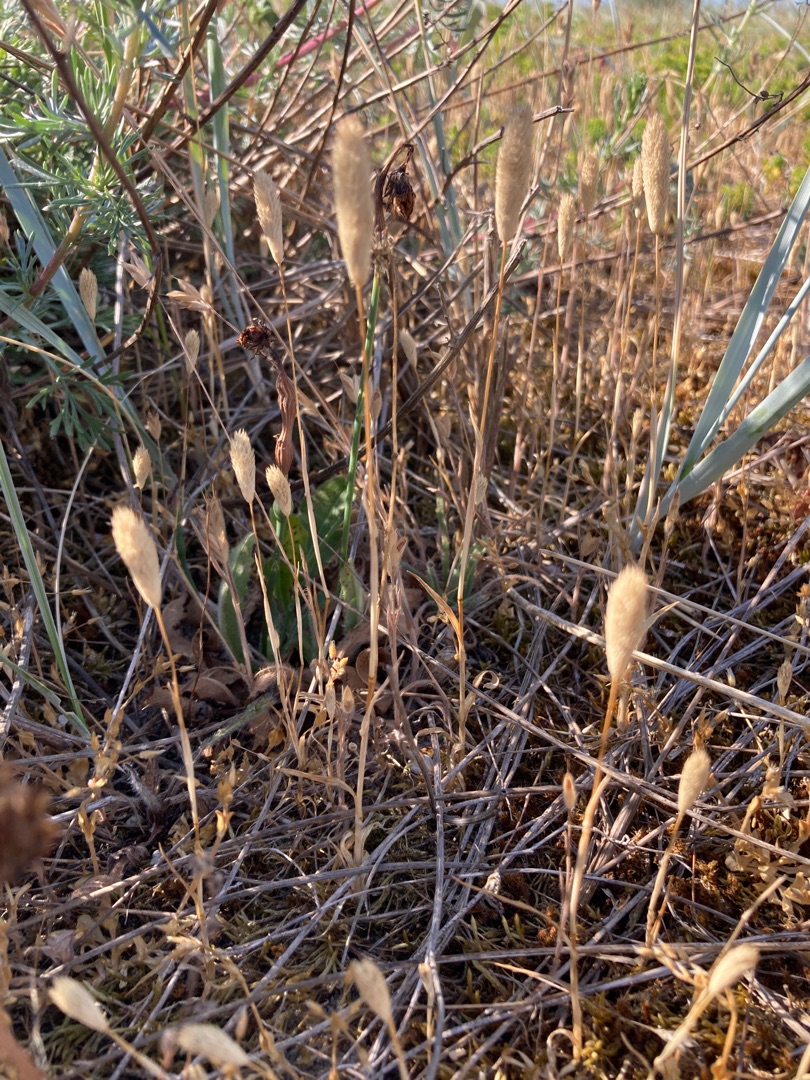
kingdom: Plantae
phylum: Tracheophyta
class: Liliopsida
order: Poales
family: Poaceae
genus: Phleum
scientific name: Phleum arenarium
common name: Sand-rottehale
